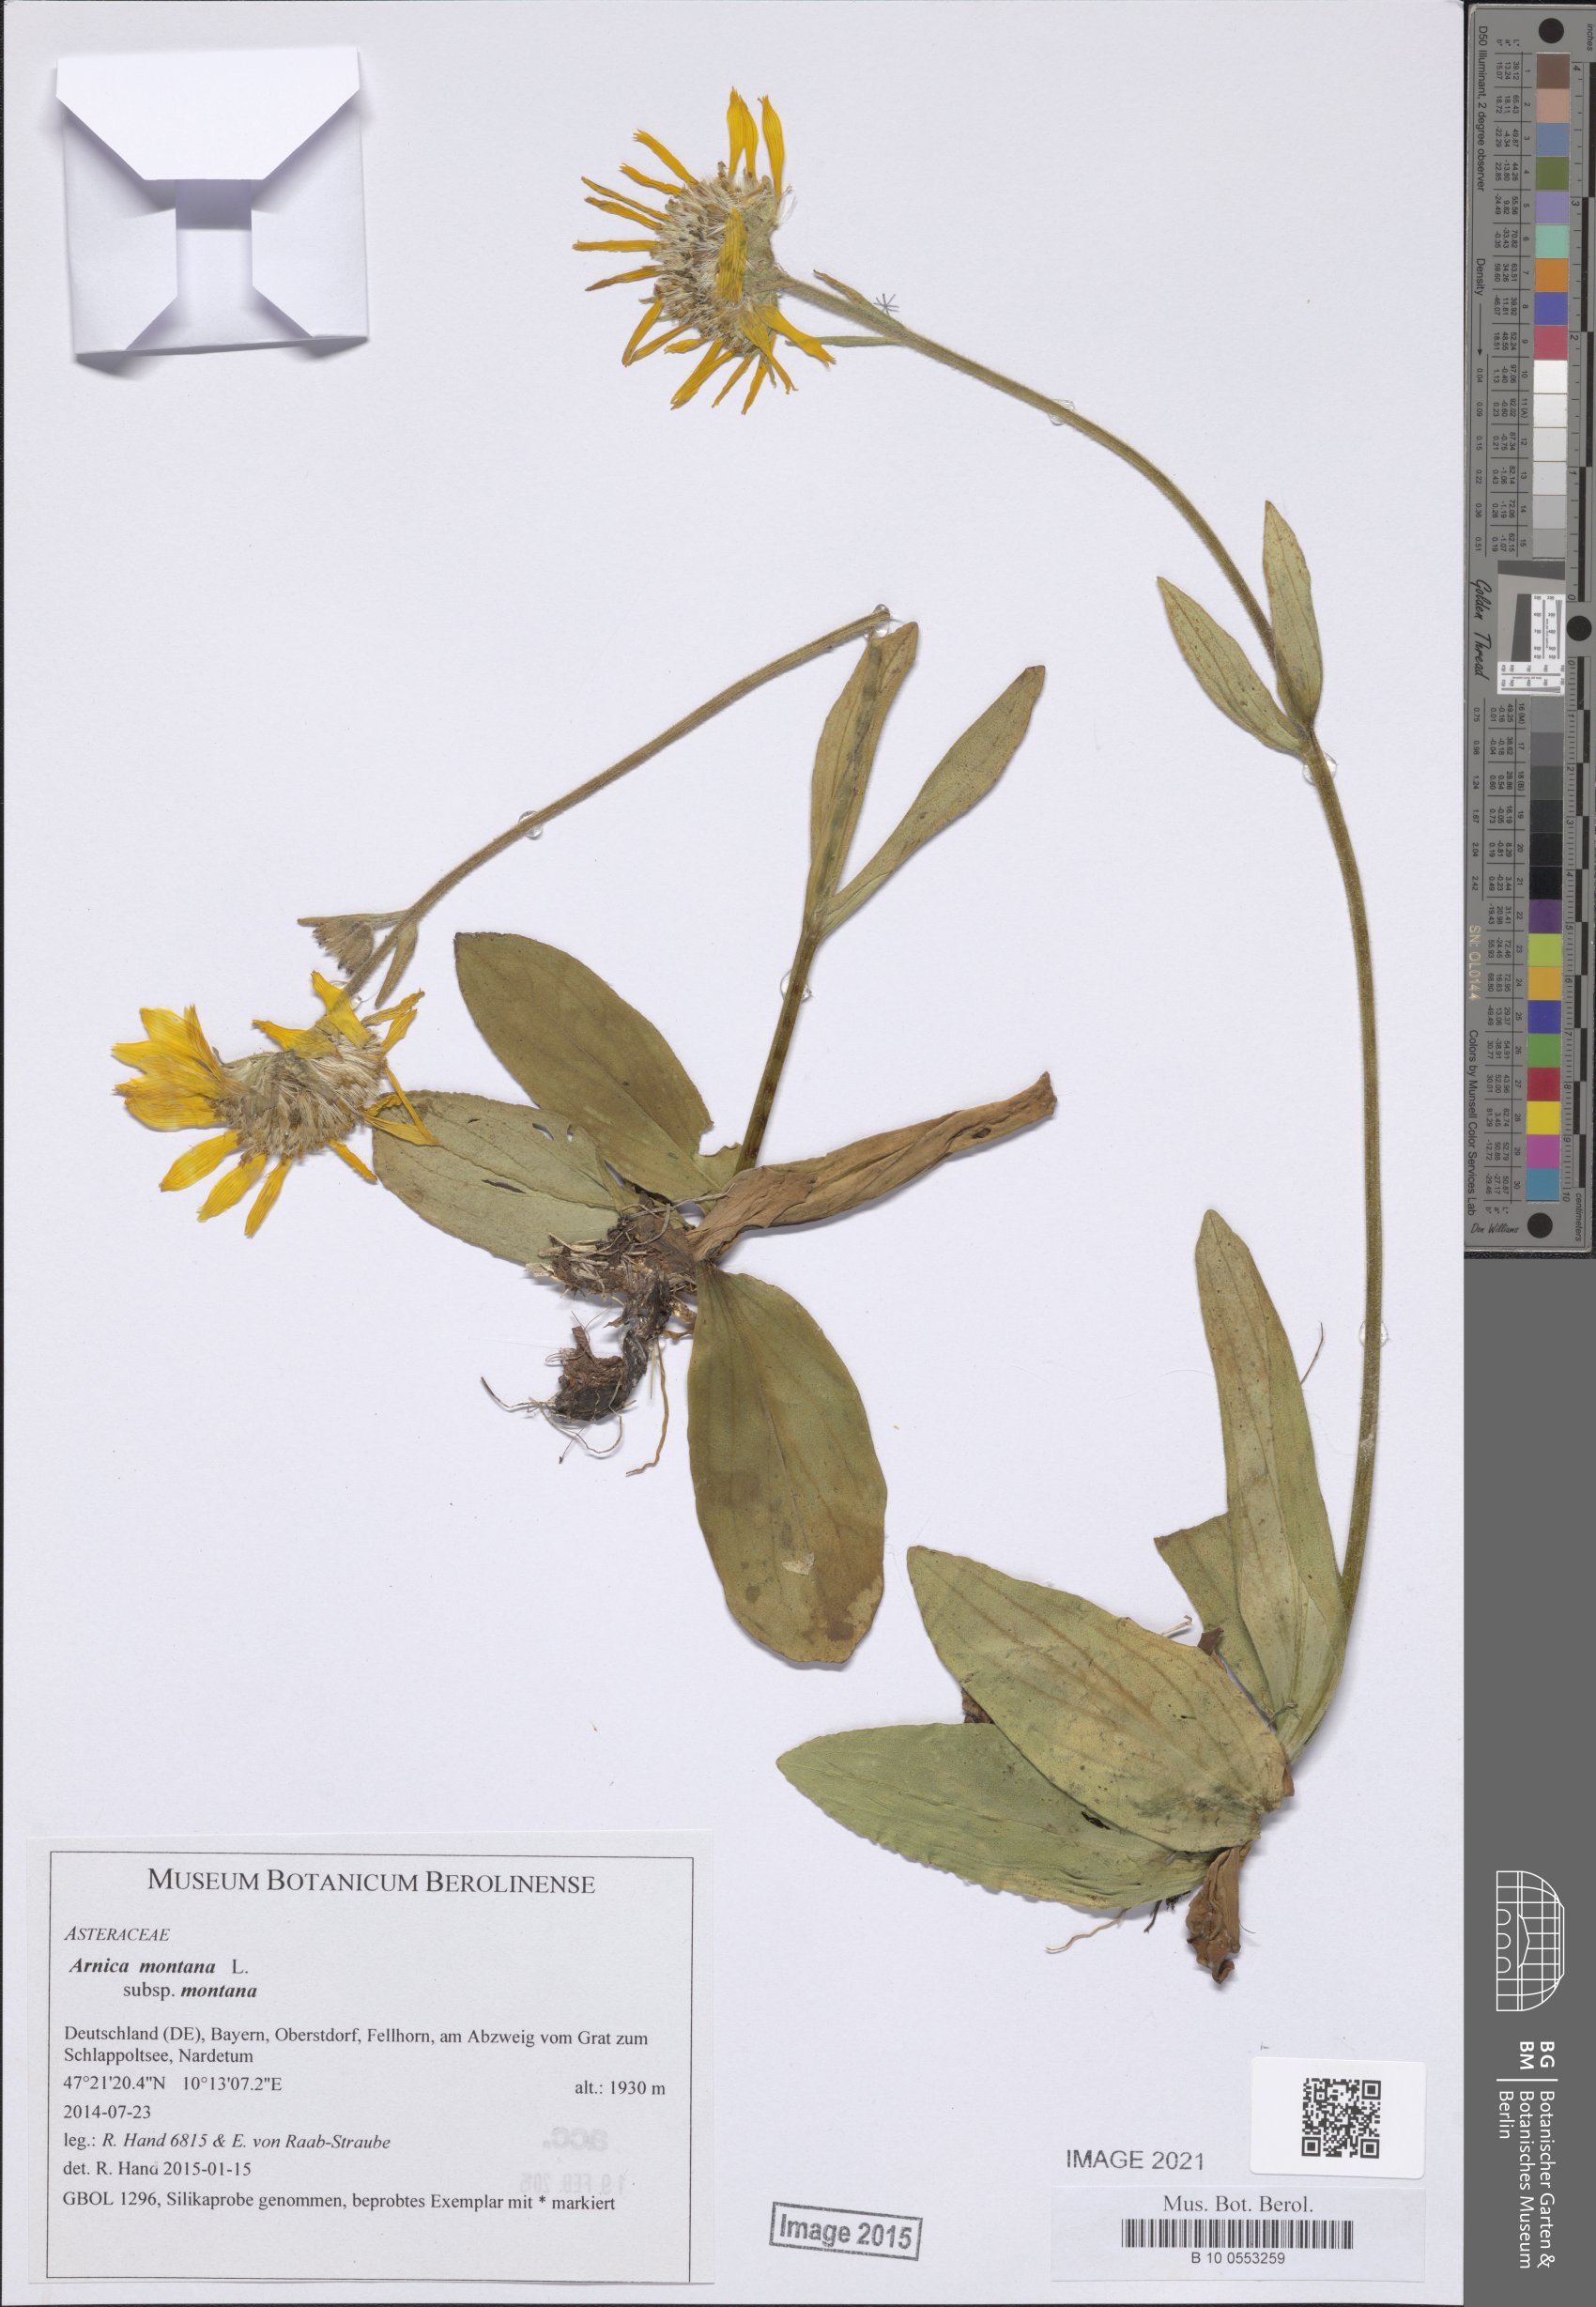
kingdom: Plantae
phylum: Tracheophyta
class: Magnoliopsida
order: Asterales
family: Asteraceae
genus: Arnica
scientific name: Arnica montana
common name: Leopard's bane
